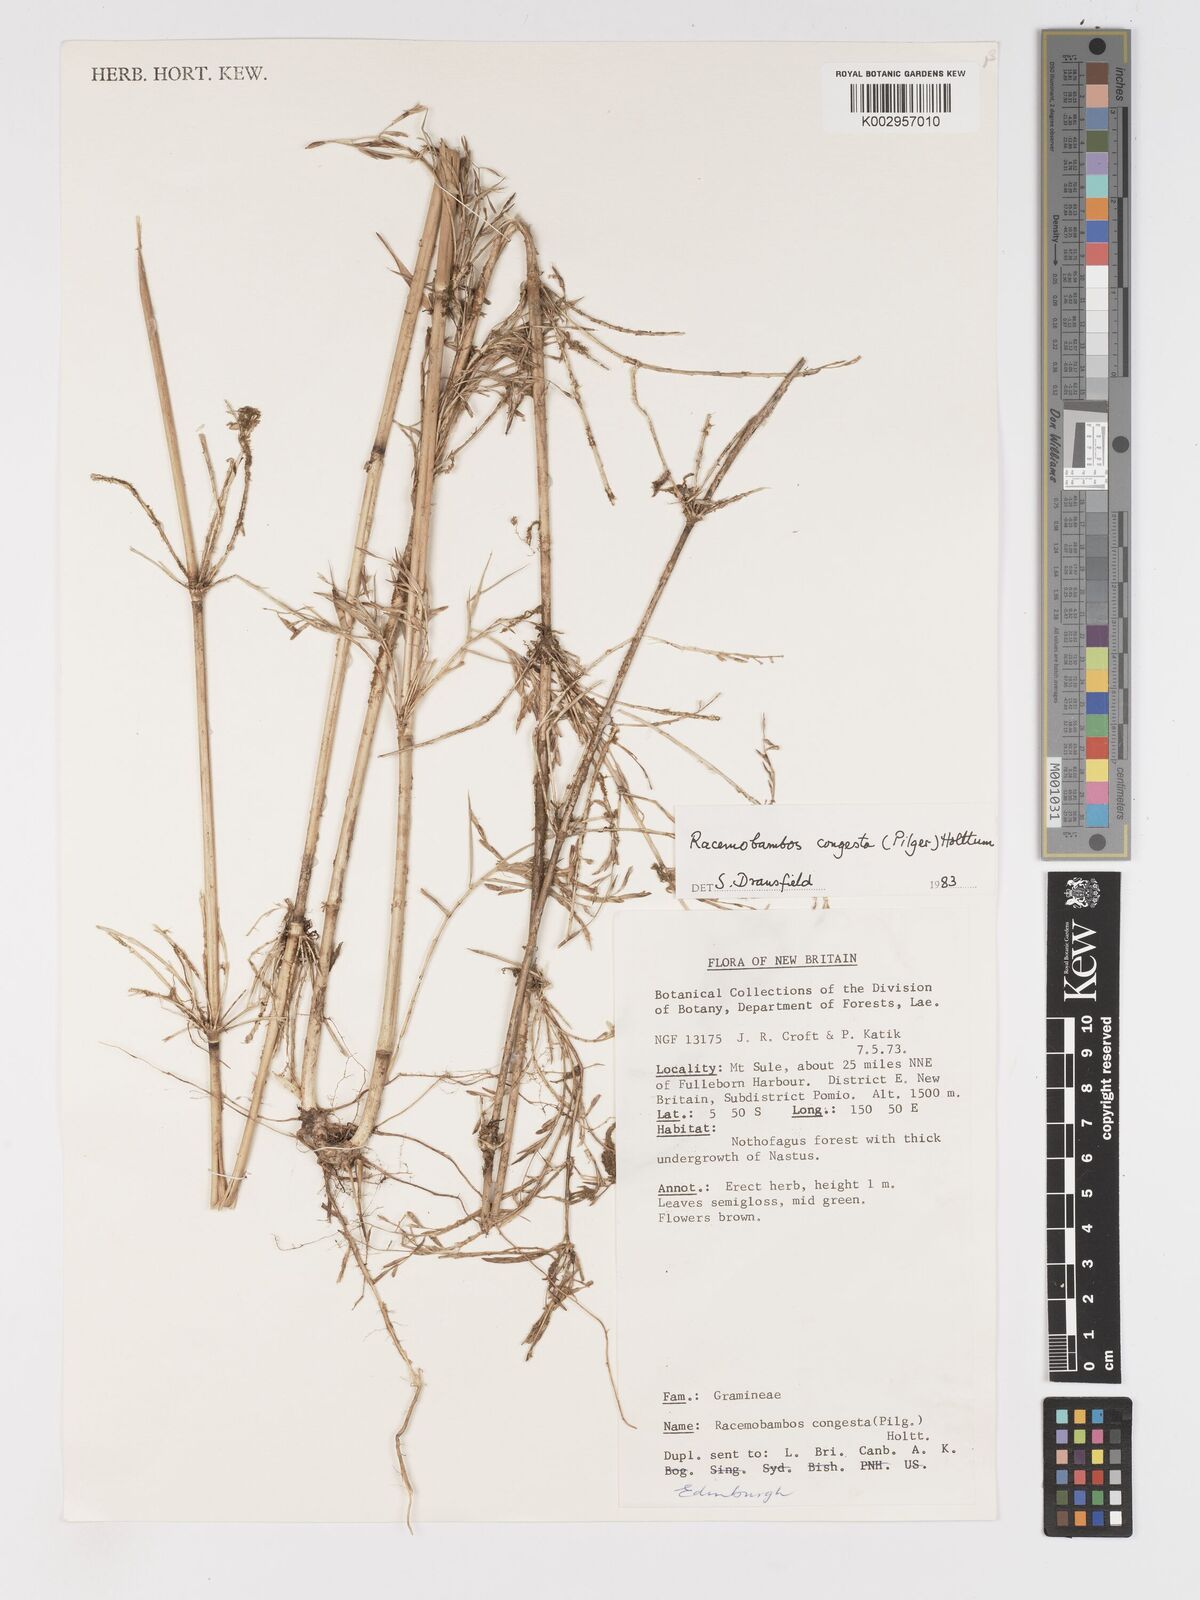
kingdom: Plantae
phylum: Tracheophyta
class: Liliopsida
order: Poales
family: Poaceae
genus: Racemobambos
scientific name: Racemobambos congesta
